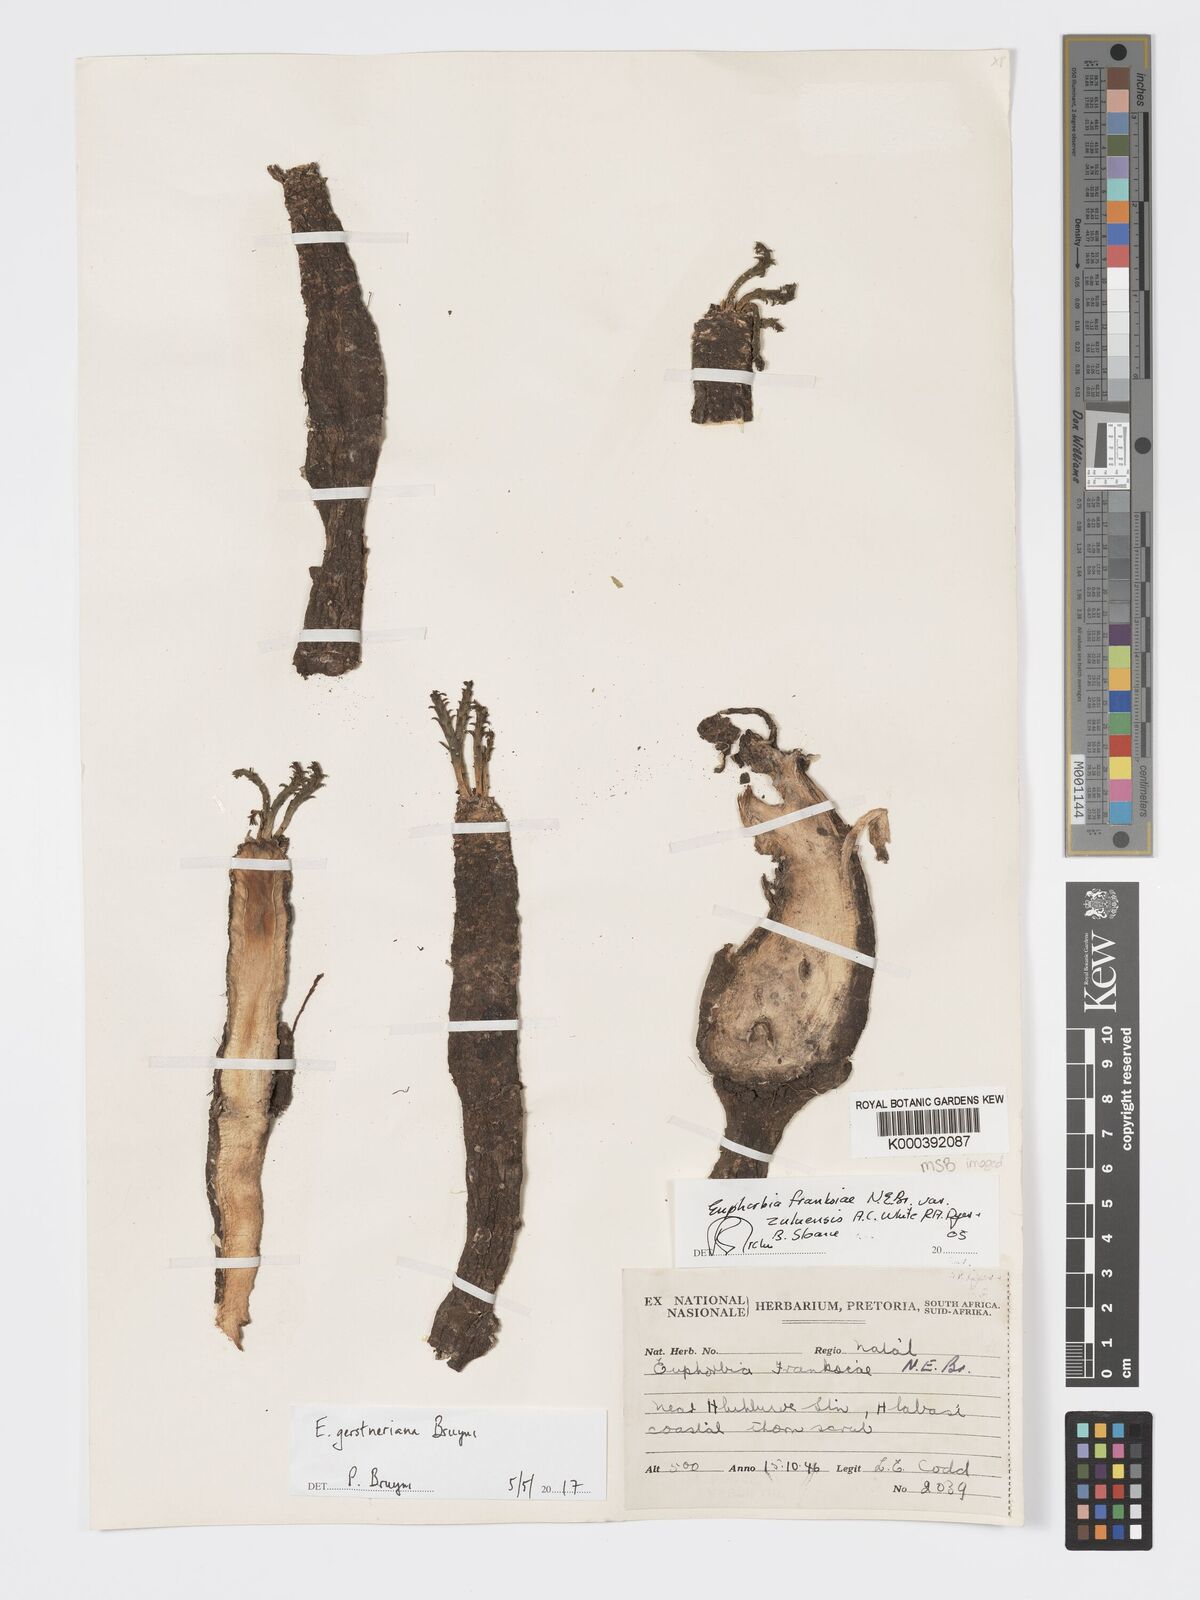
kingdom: Plantae
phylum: Tracheophyta
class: Magnoliopsida
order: Malpighiales
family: Euphorbiaceae
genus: Euphorbia
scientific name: Euphorbia franksiae
